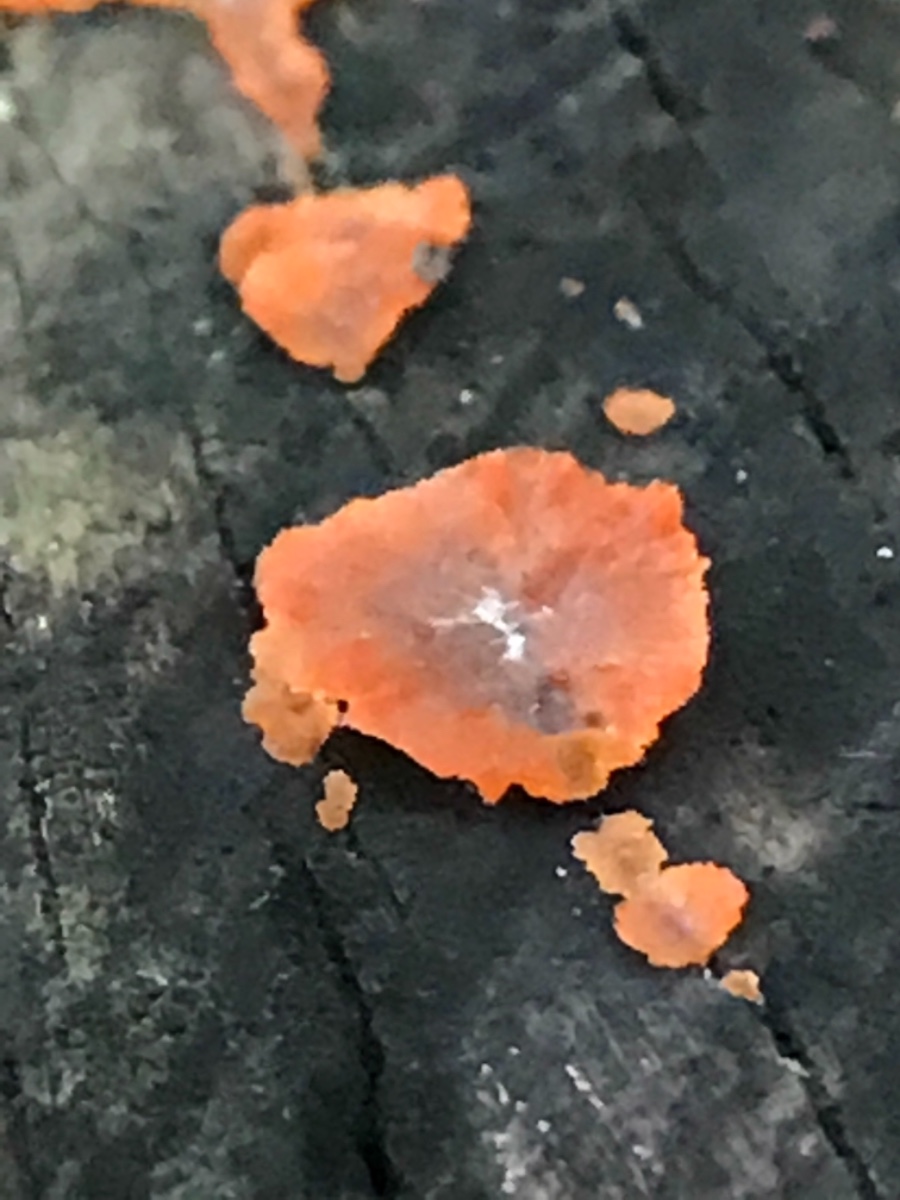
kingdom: Fungi
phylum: Basidiomycota
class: Agaricomycetes
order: Polyporales
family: Meruliaceae
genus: Phlebia
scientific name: Phlebia radiata
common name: stråle-åresvamp
